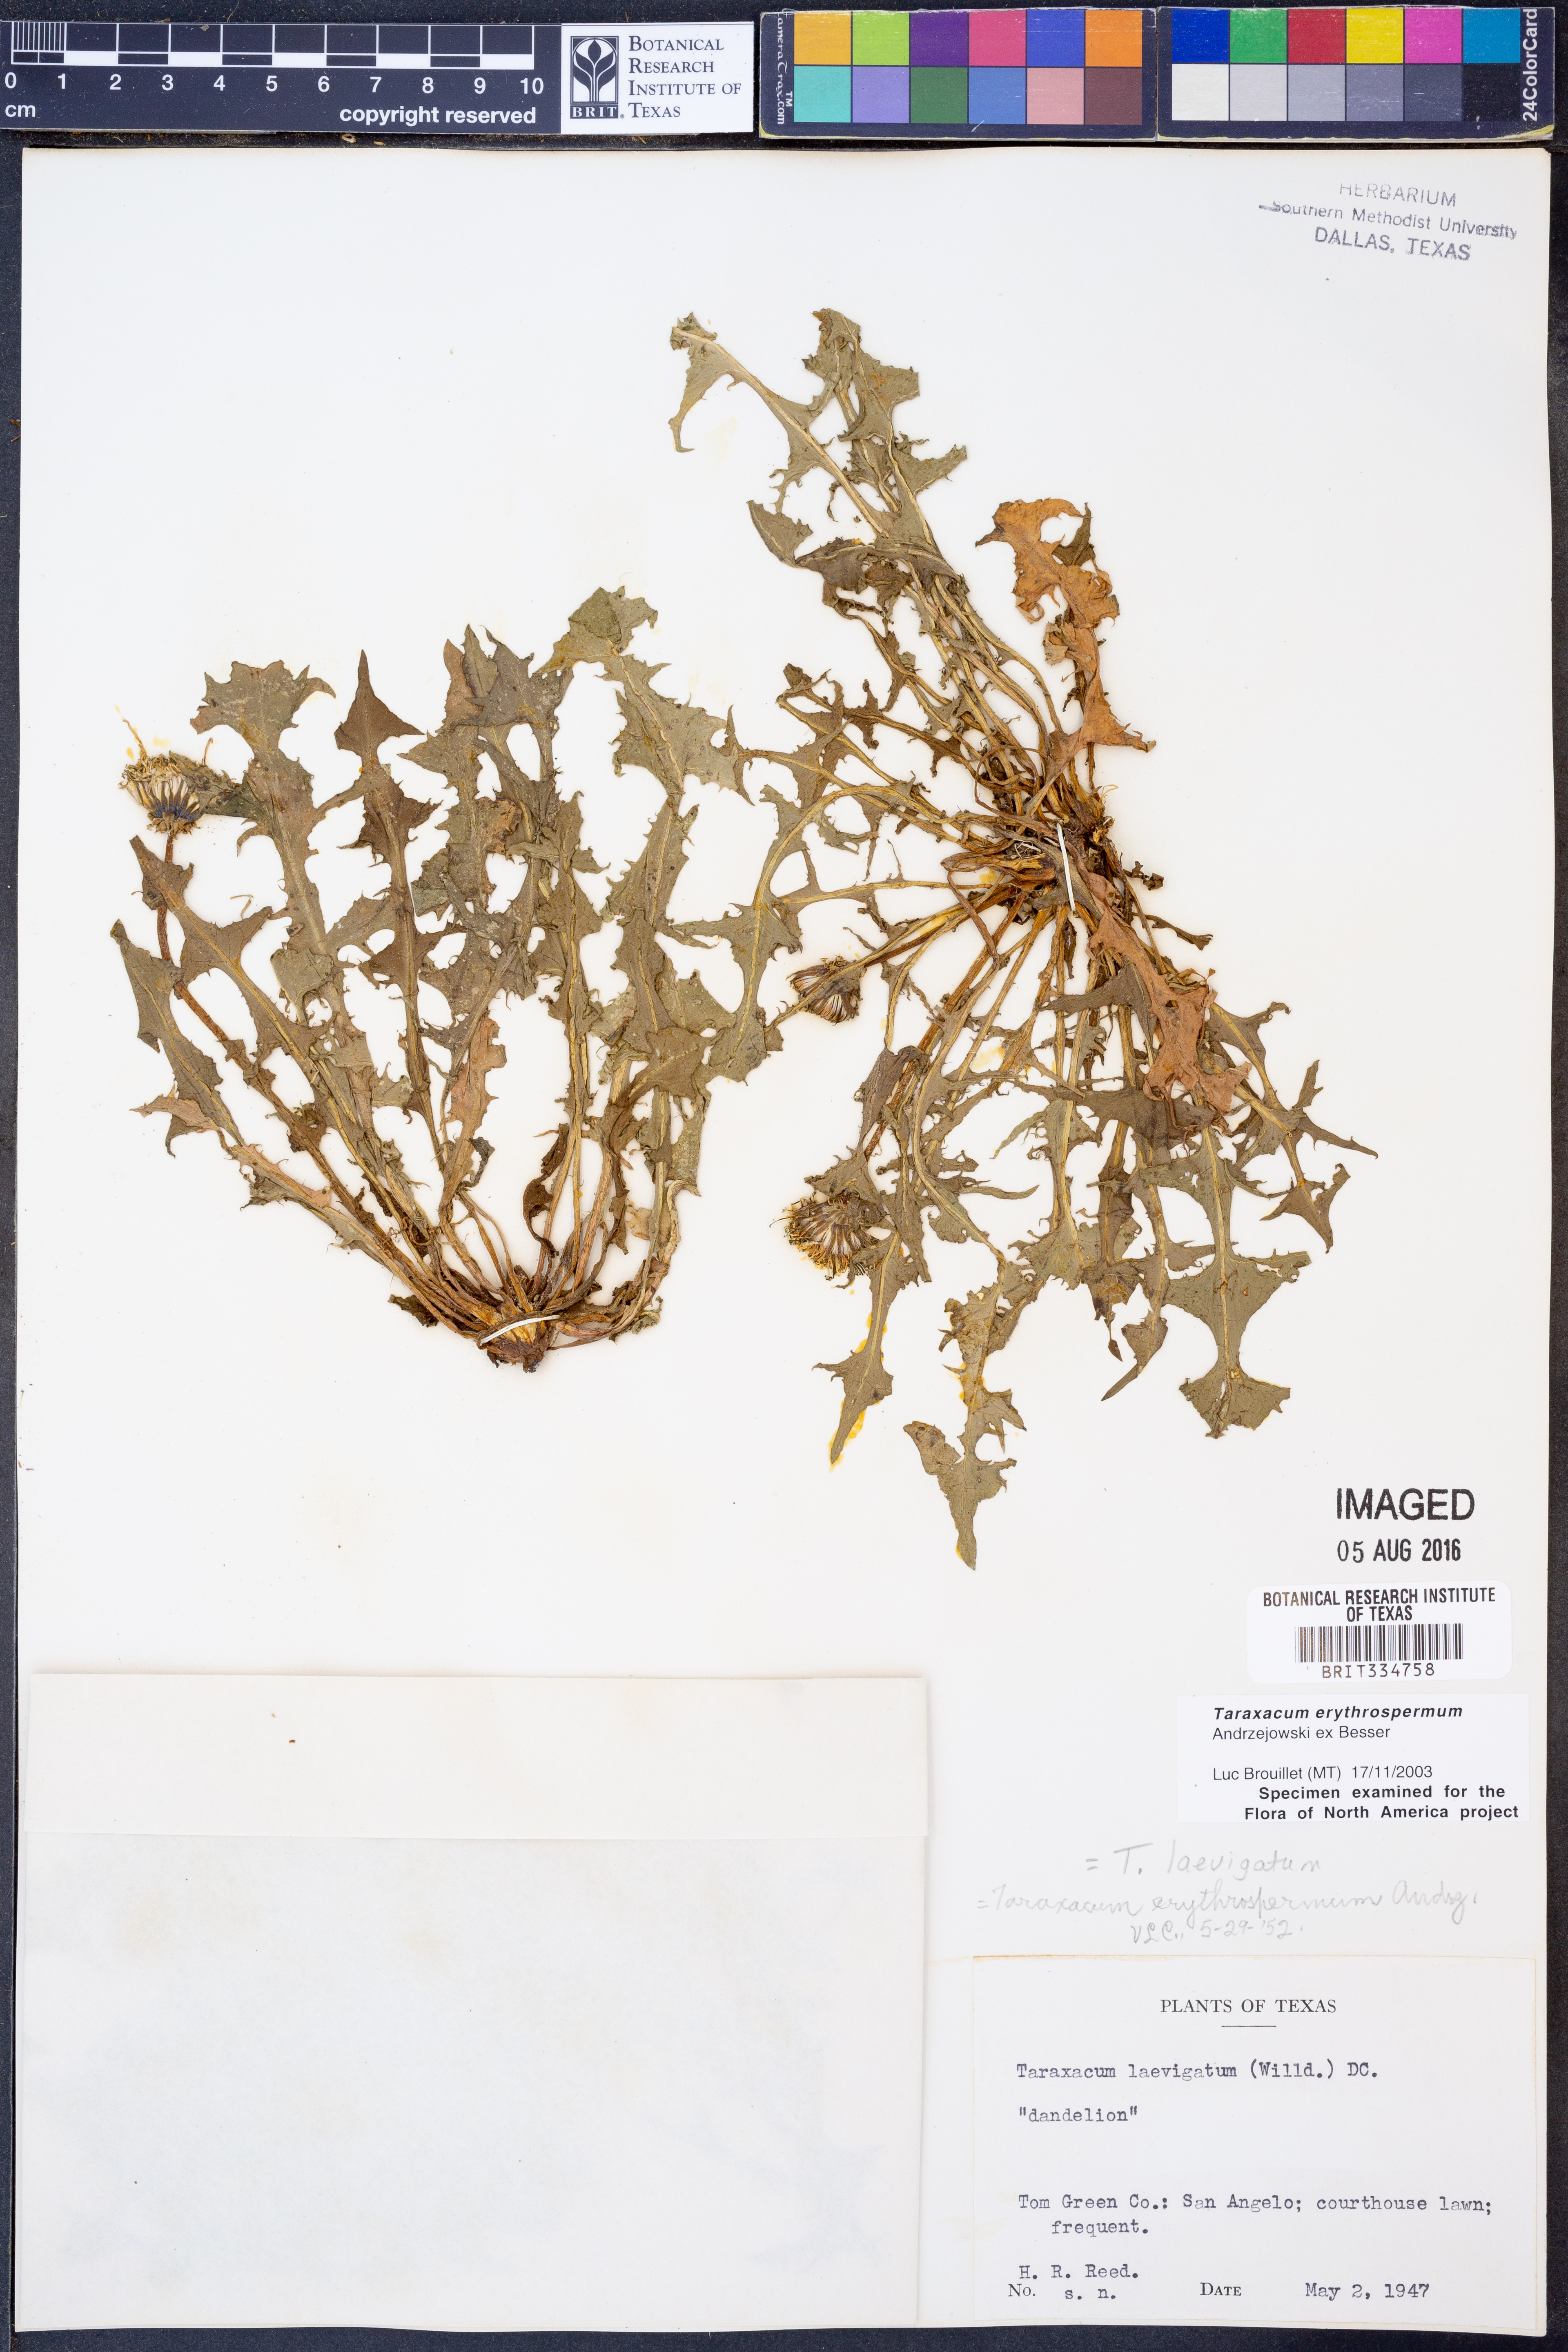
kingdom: Plantae
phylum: Tracheophyta
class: Magnoliopsida
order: Asterales
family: Asteraceae
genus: Taraxacum
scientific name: Taraxacum erythrospermum
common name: Rock dandelion
